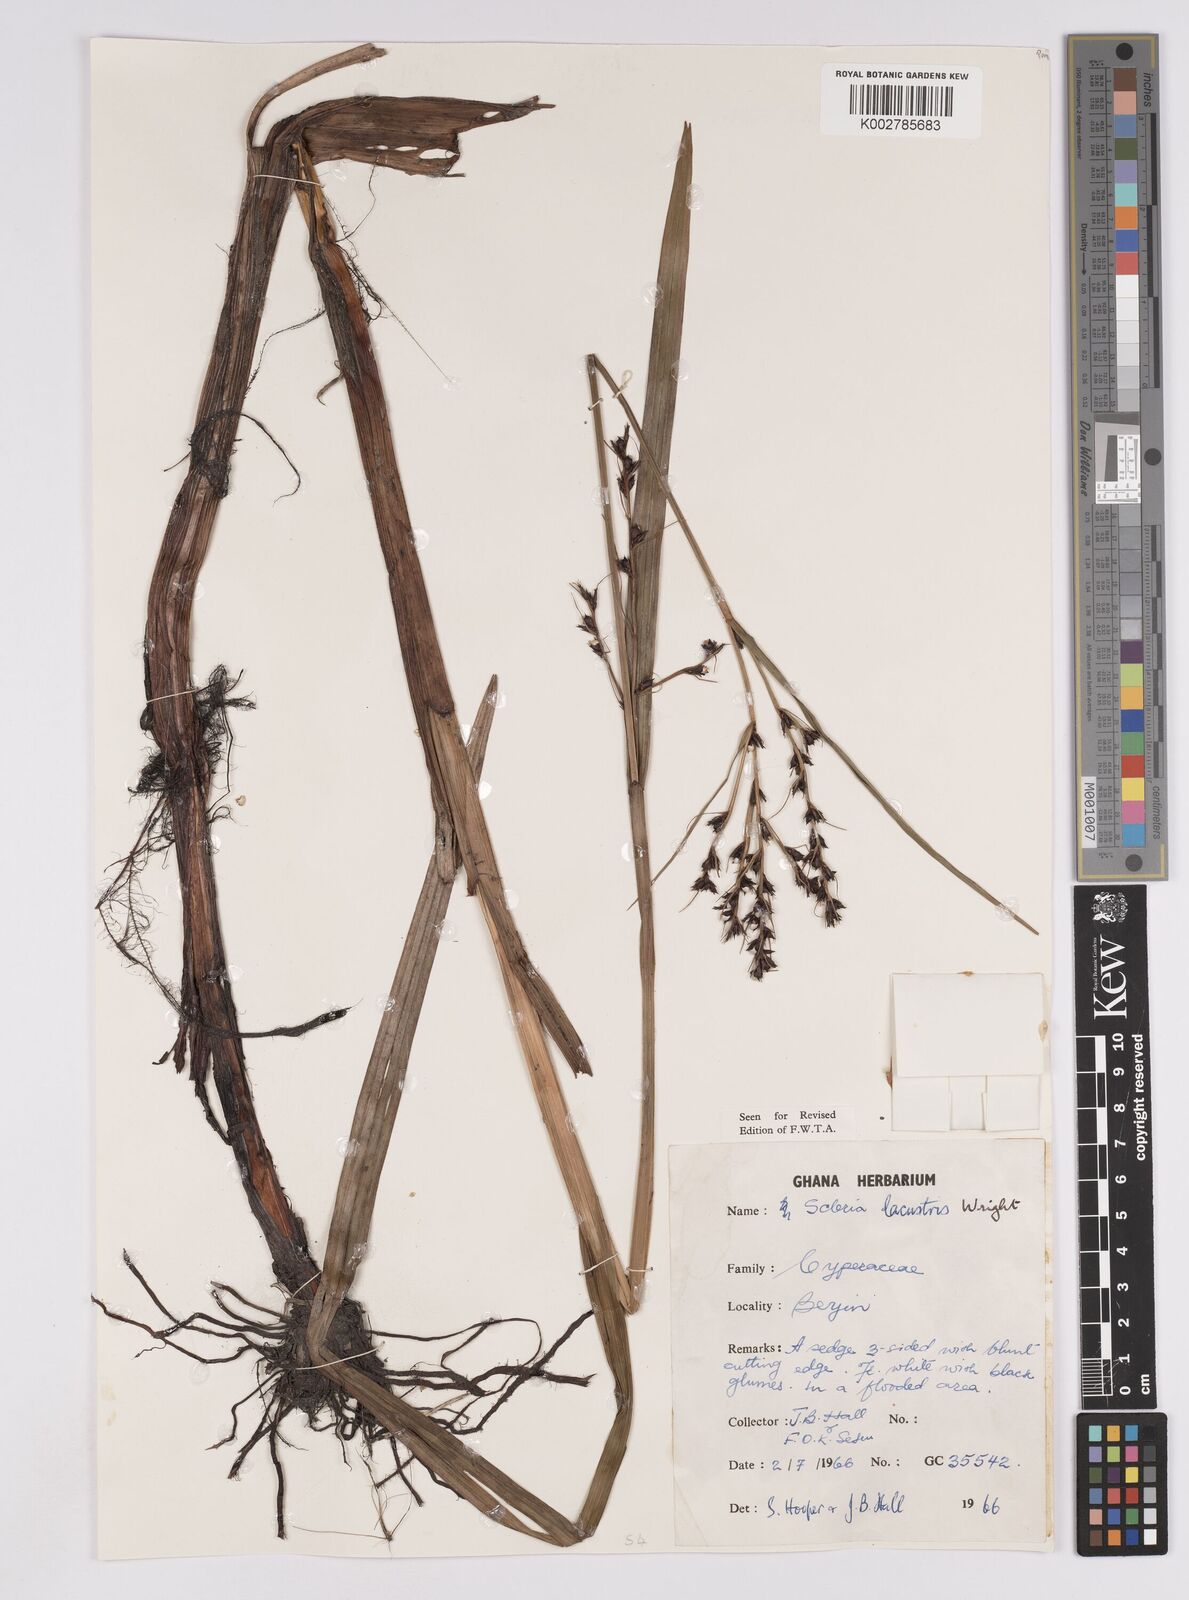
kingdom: Plantae
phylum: Tracheophyta
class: Liliopsida
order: Poales
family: Cyperaceae
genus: Scleria
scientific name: Scleria lacustris
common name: Lakeshore nutrush
